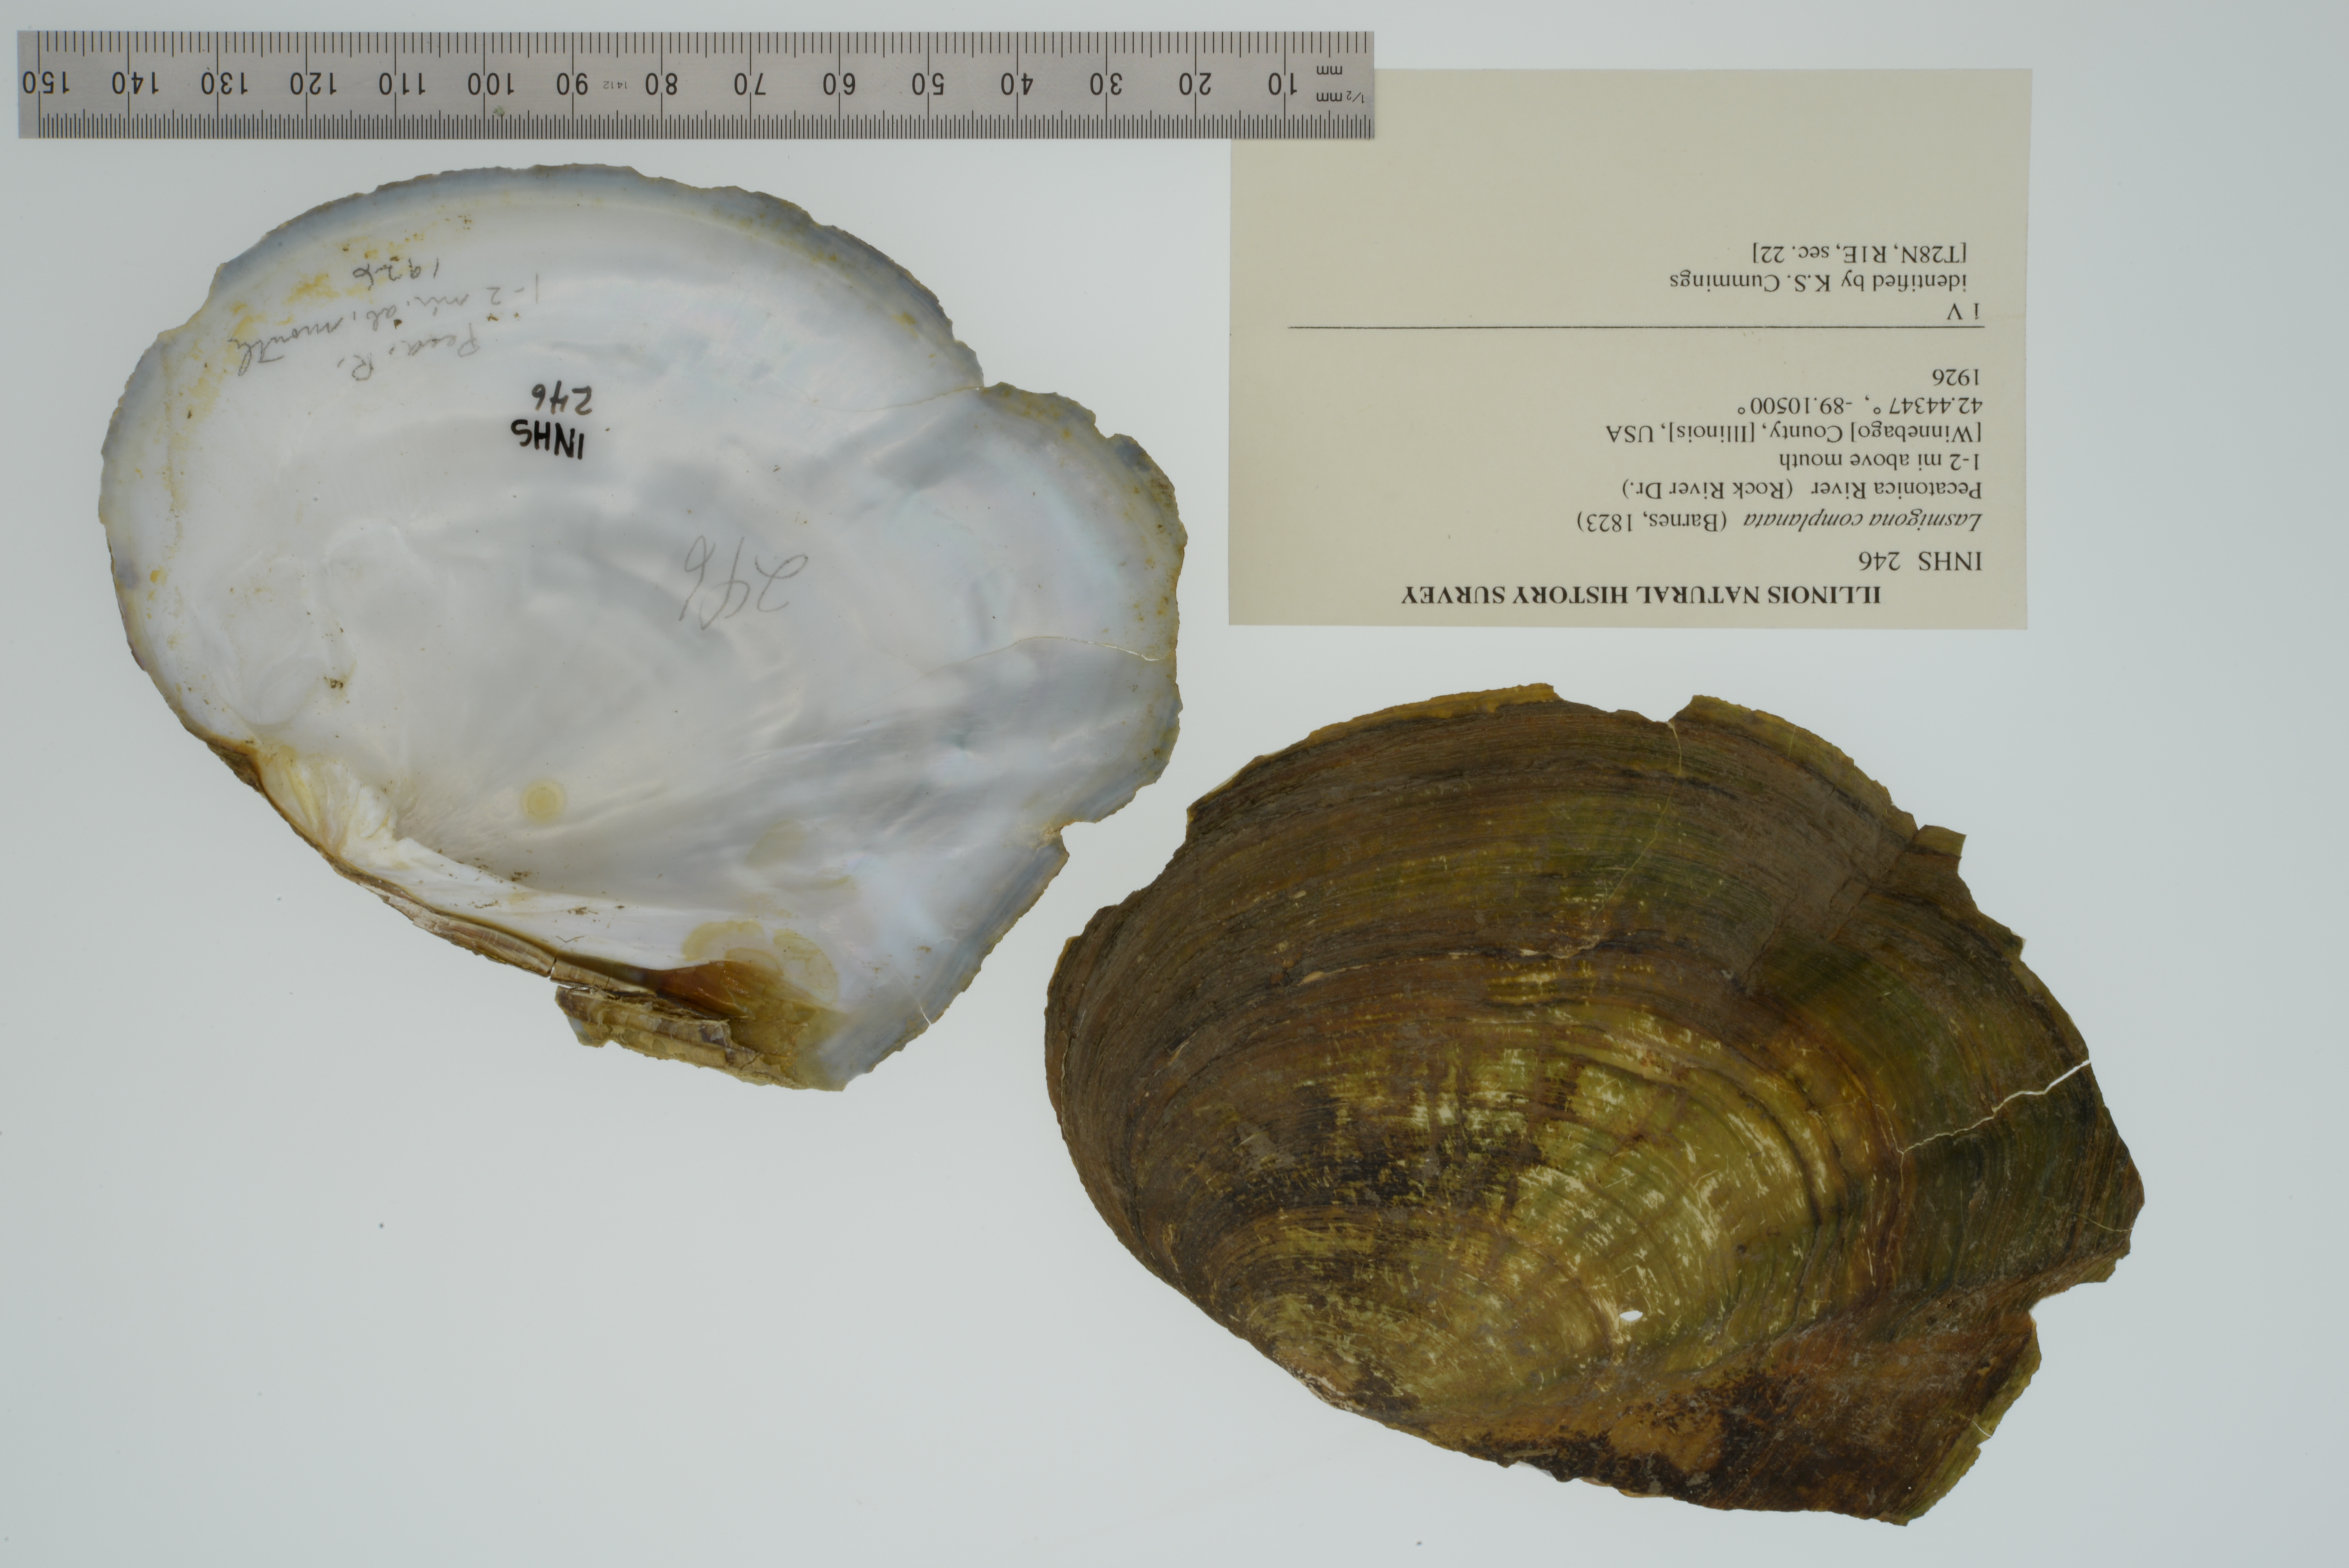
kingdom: Animalia
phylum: Mollusca
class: Bivalvia
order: Unionida
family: Unionidae
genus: Lasmigona
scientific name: Lasmigona complanata
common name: White heelsplitter
